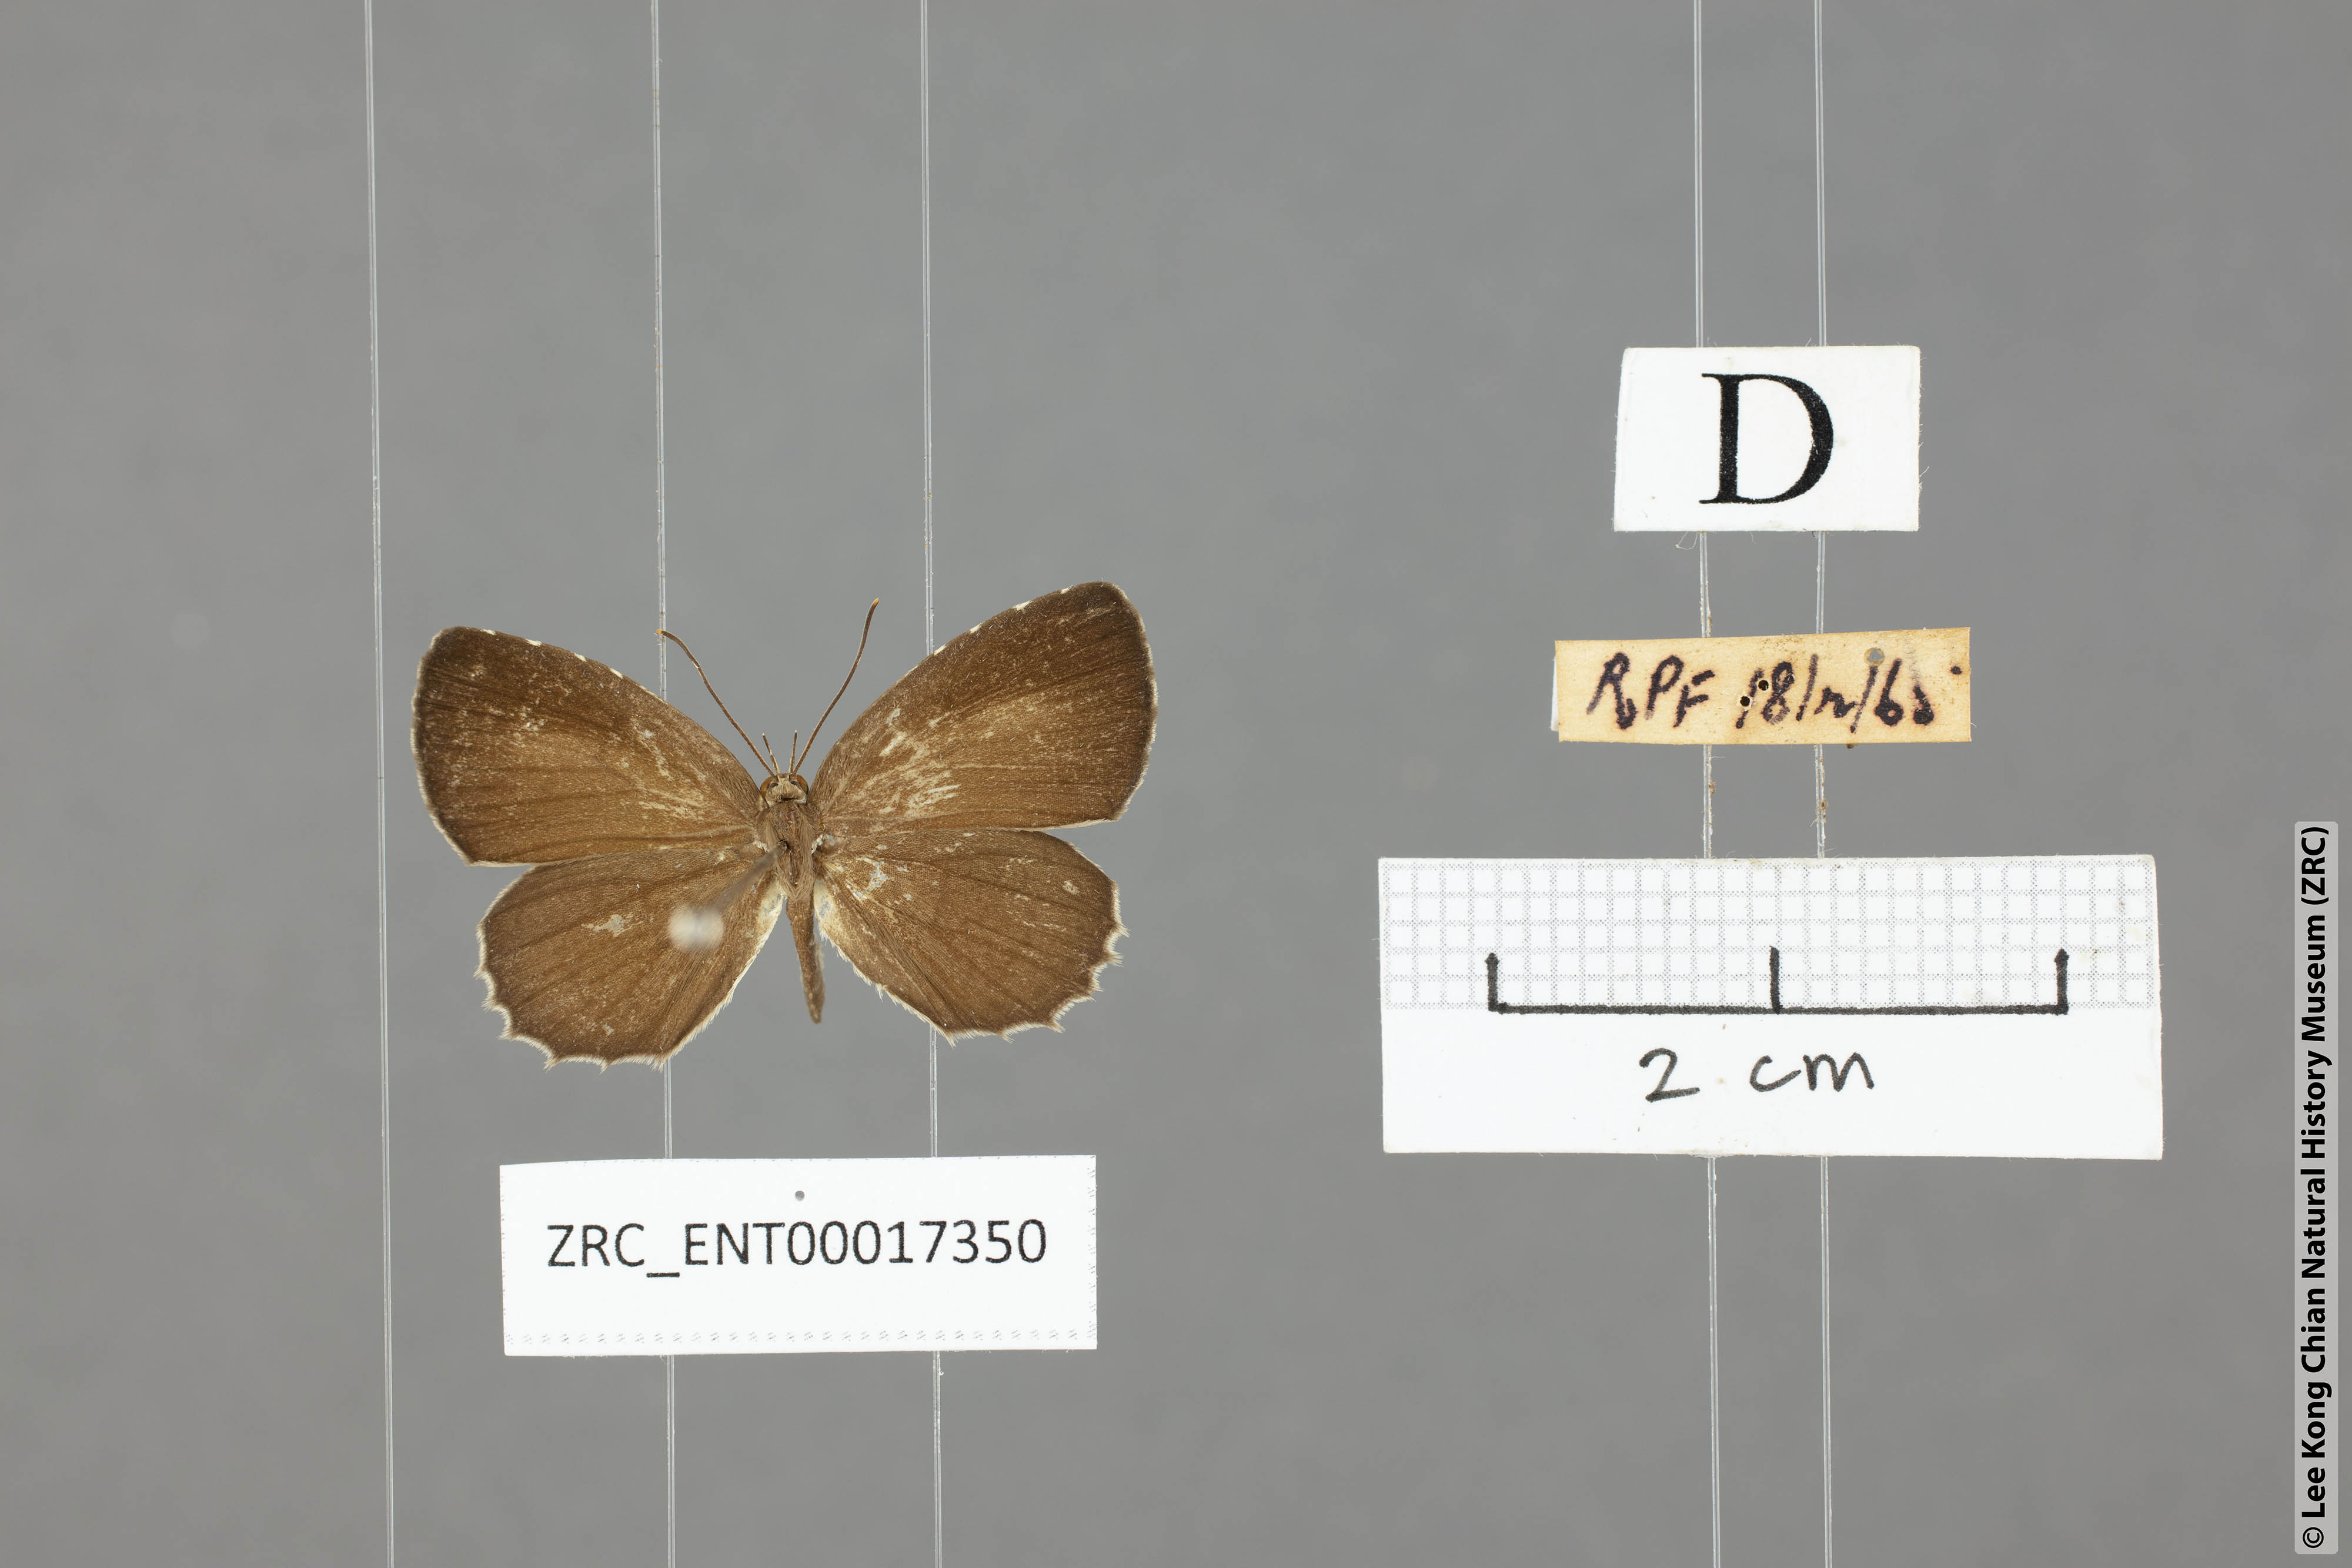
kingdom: Animalia
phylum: Arthropoda
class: Insecta
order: Lepidoptera
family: Lycaenidae
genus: Allotinus
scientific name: Allotinus unicolor
